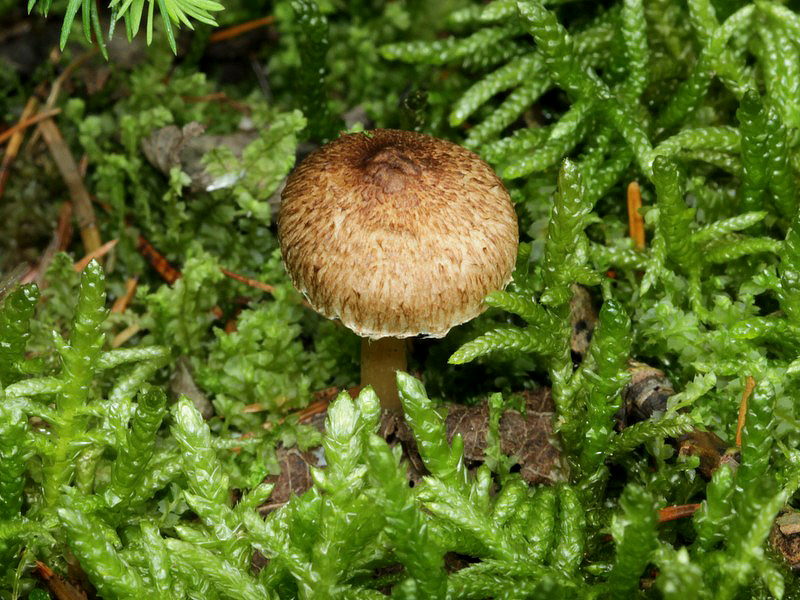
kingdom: Fungi
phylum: Basidiomycota
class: Agaricomycetes
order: Agaricales
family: Inocybaceae
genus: Inocybe
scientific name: Inocybe
